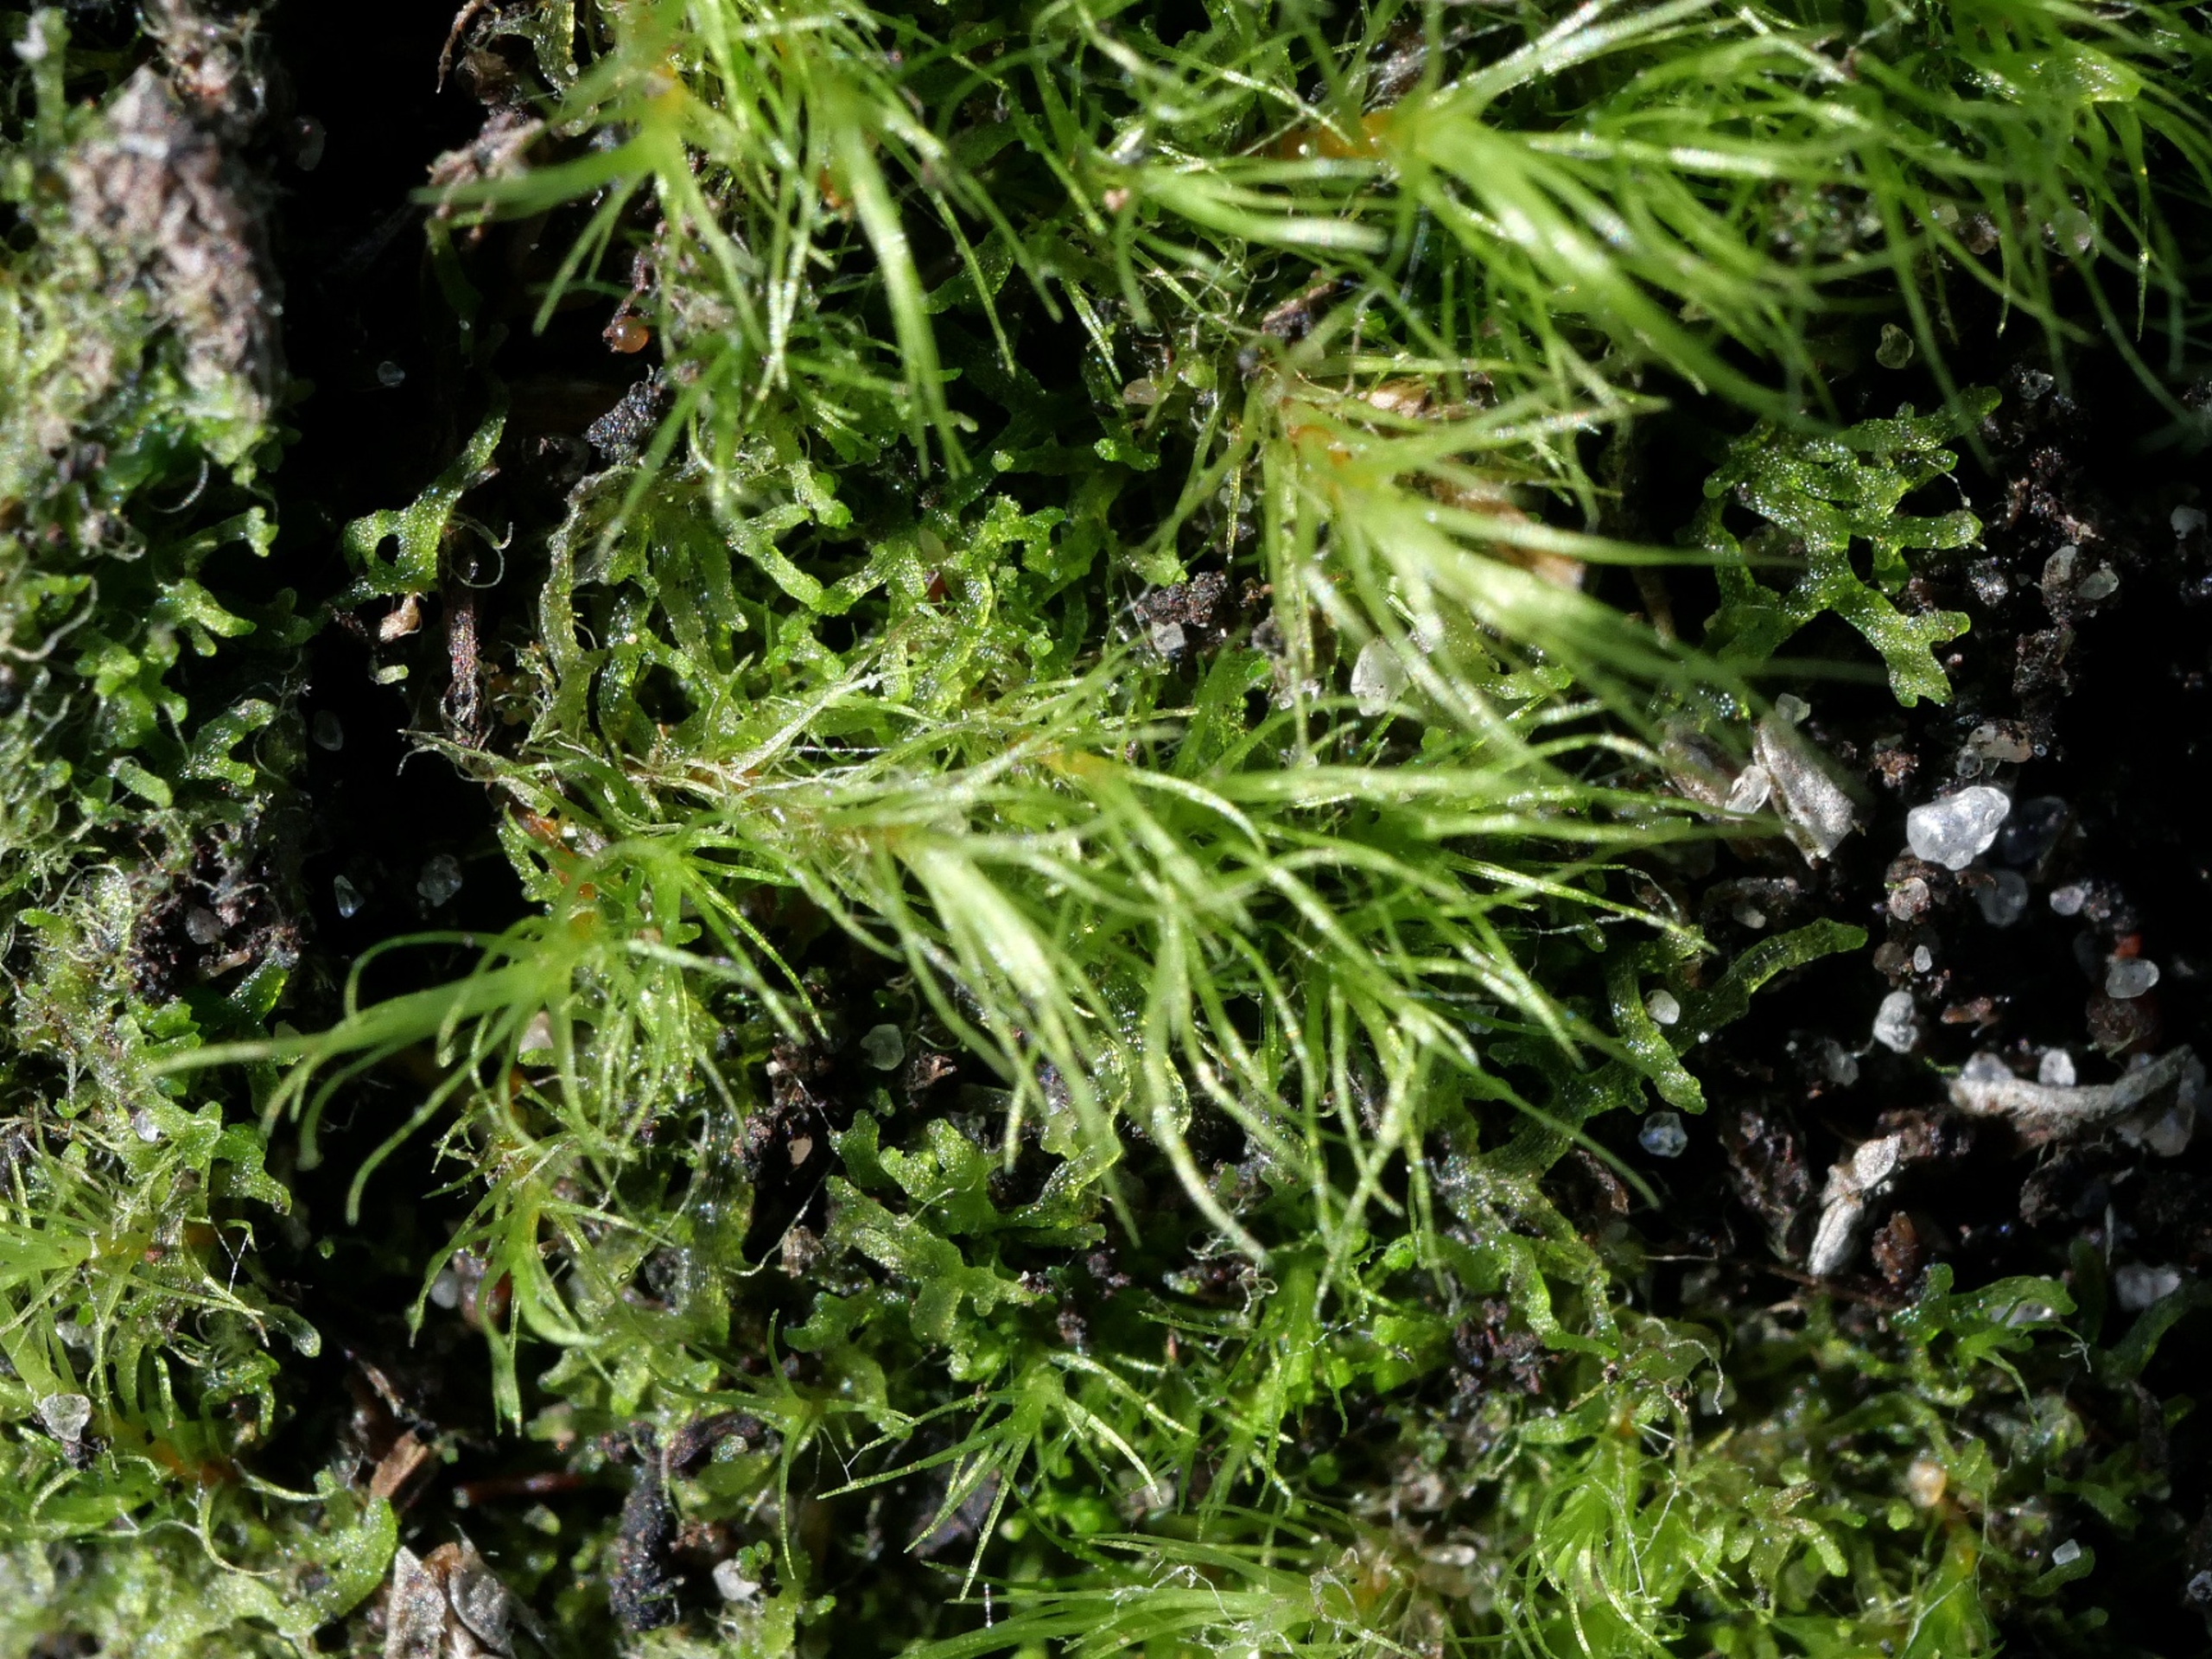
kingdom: Plantae
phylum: Marchantiophyta
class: Jungermanniopsida
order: Metzgeriales
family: Aneuraceae
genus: Riccardia
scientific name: Riccardia palmata
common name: Ved-ribbeløs
